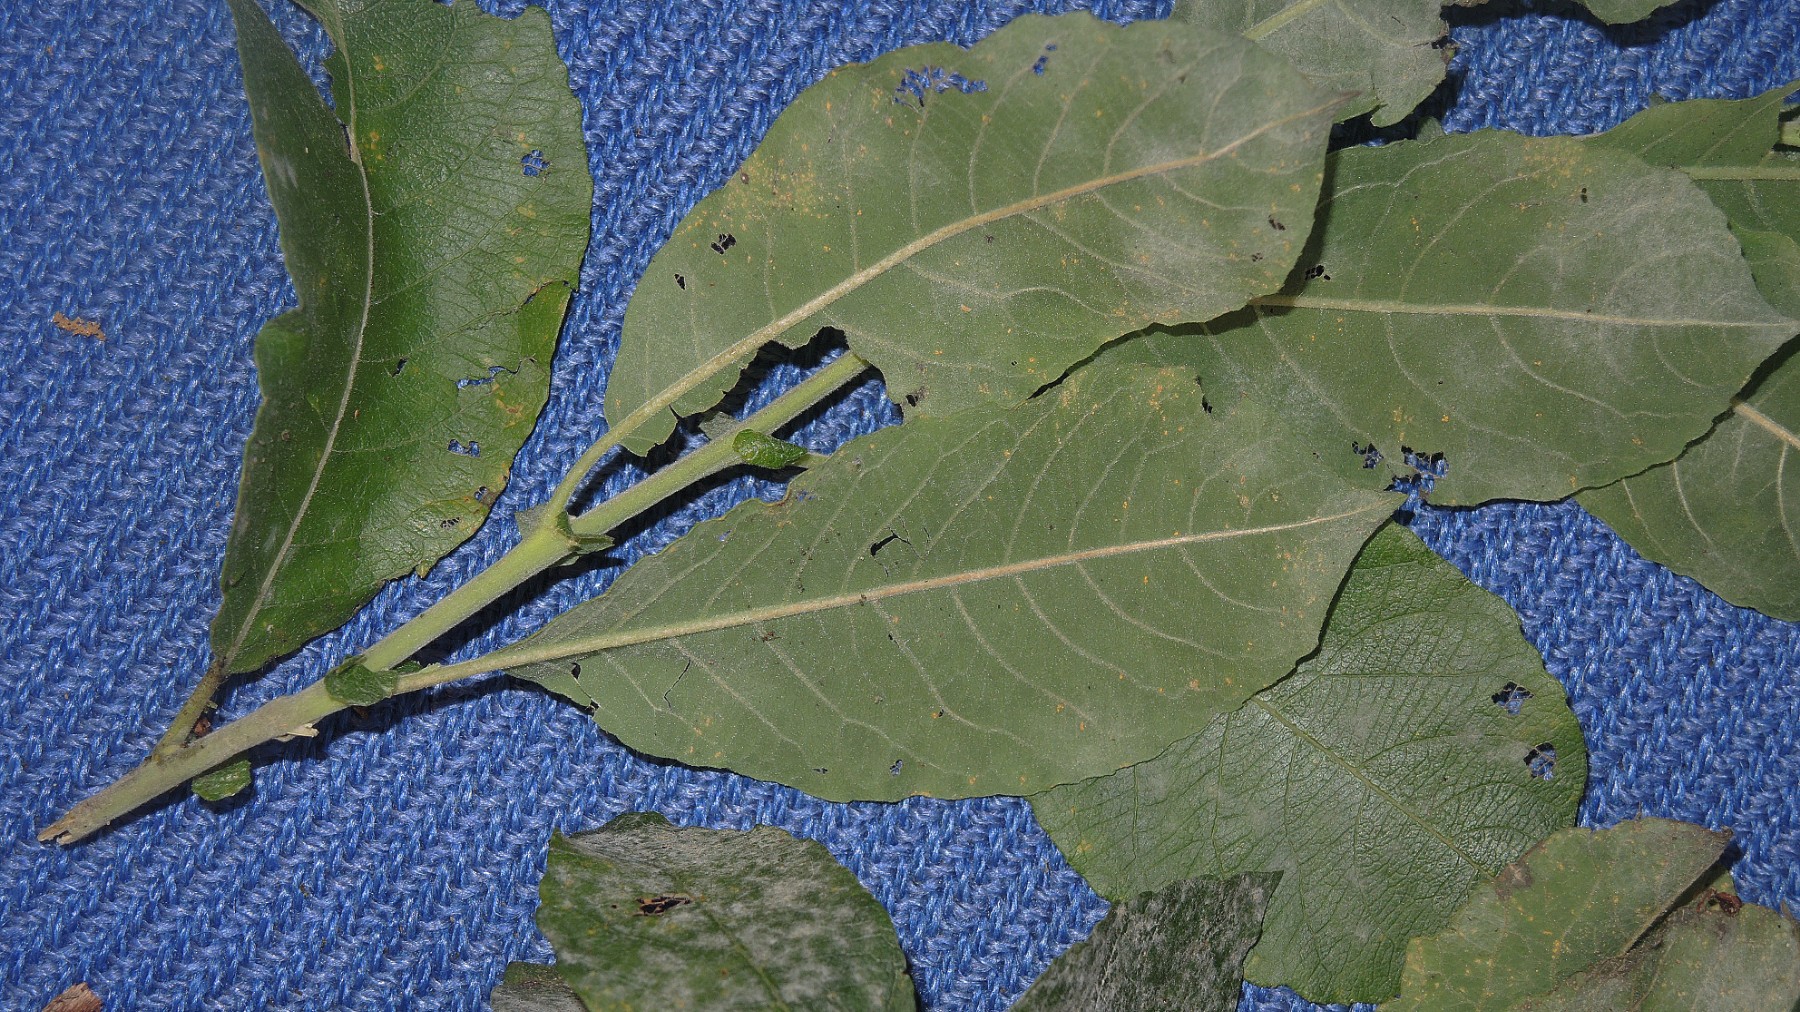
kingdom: Fungi
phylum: Ascomycota
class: Leotiomycetes
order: Helotiales
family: Erysiphaceae
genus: Erysiphe
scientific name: Erysiphe capreae
